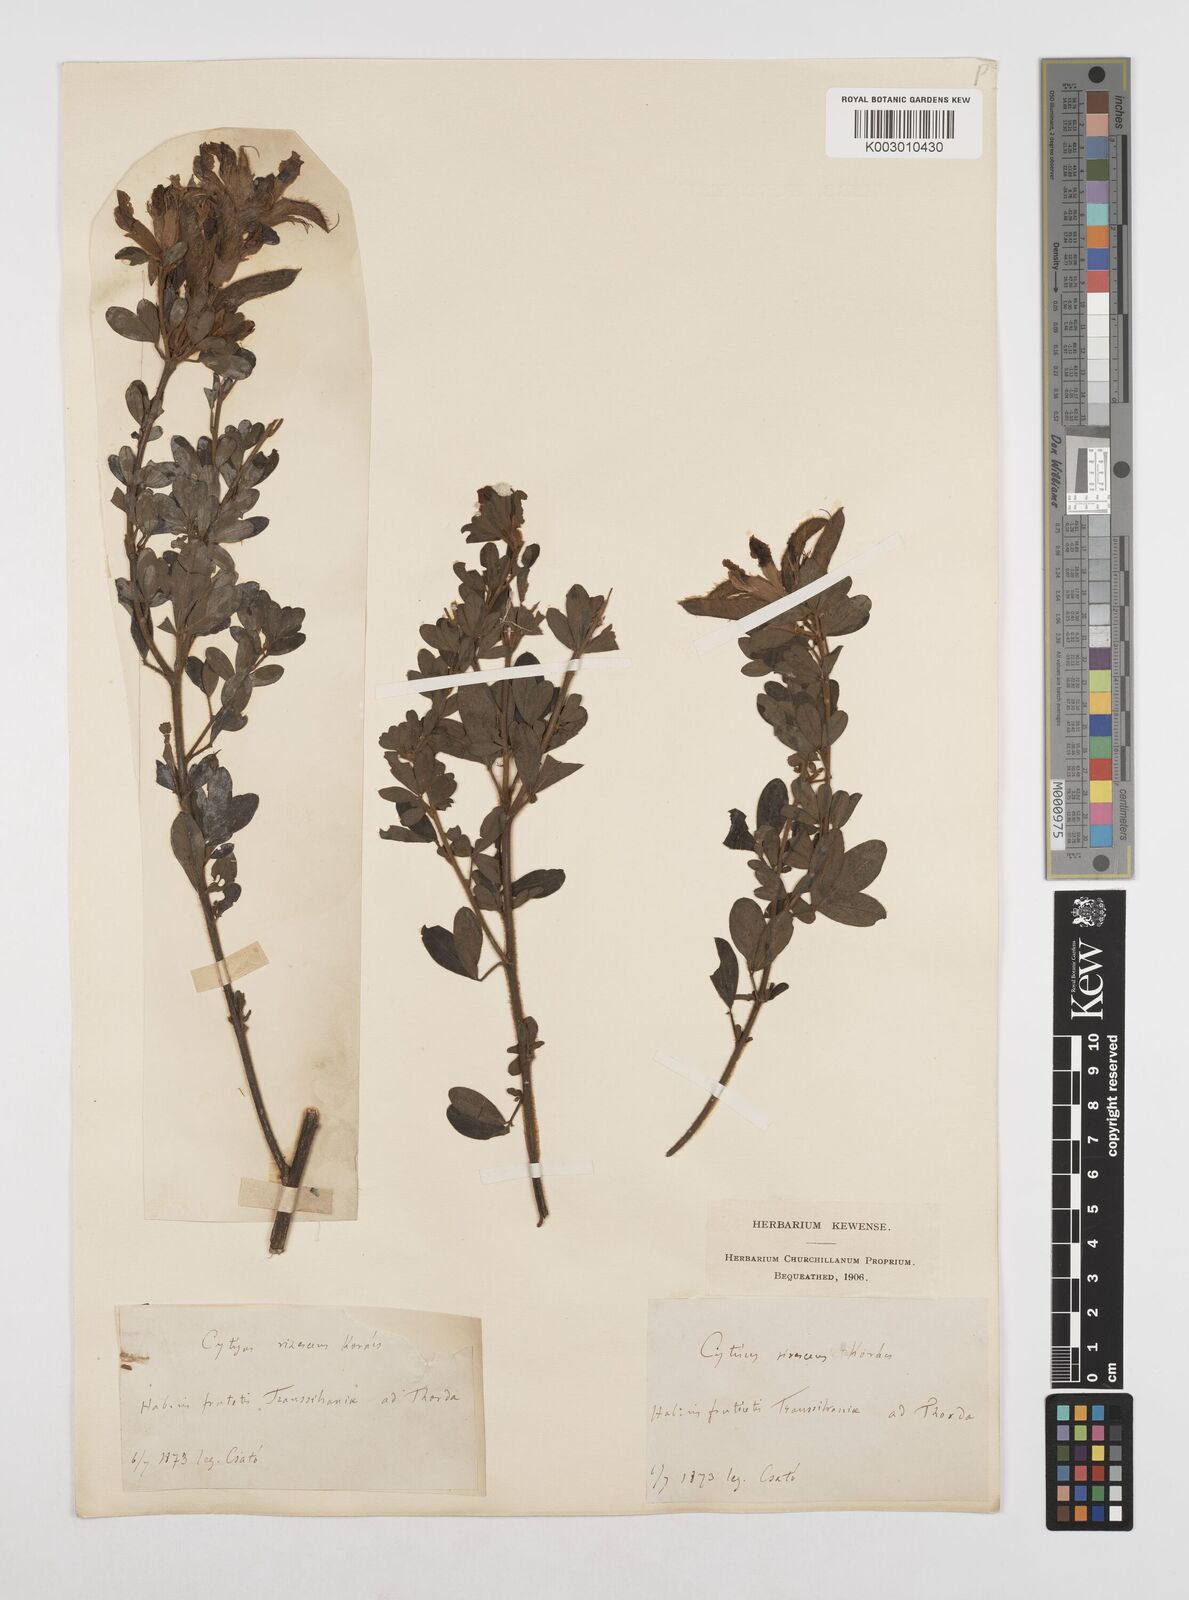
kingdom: Plantae
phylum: Tracheophyta
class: Magnoliopsida
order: Fabales
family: Fabaceae
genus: Chamaecytisus
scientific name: Chamaecytisus austriacus
